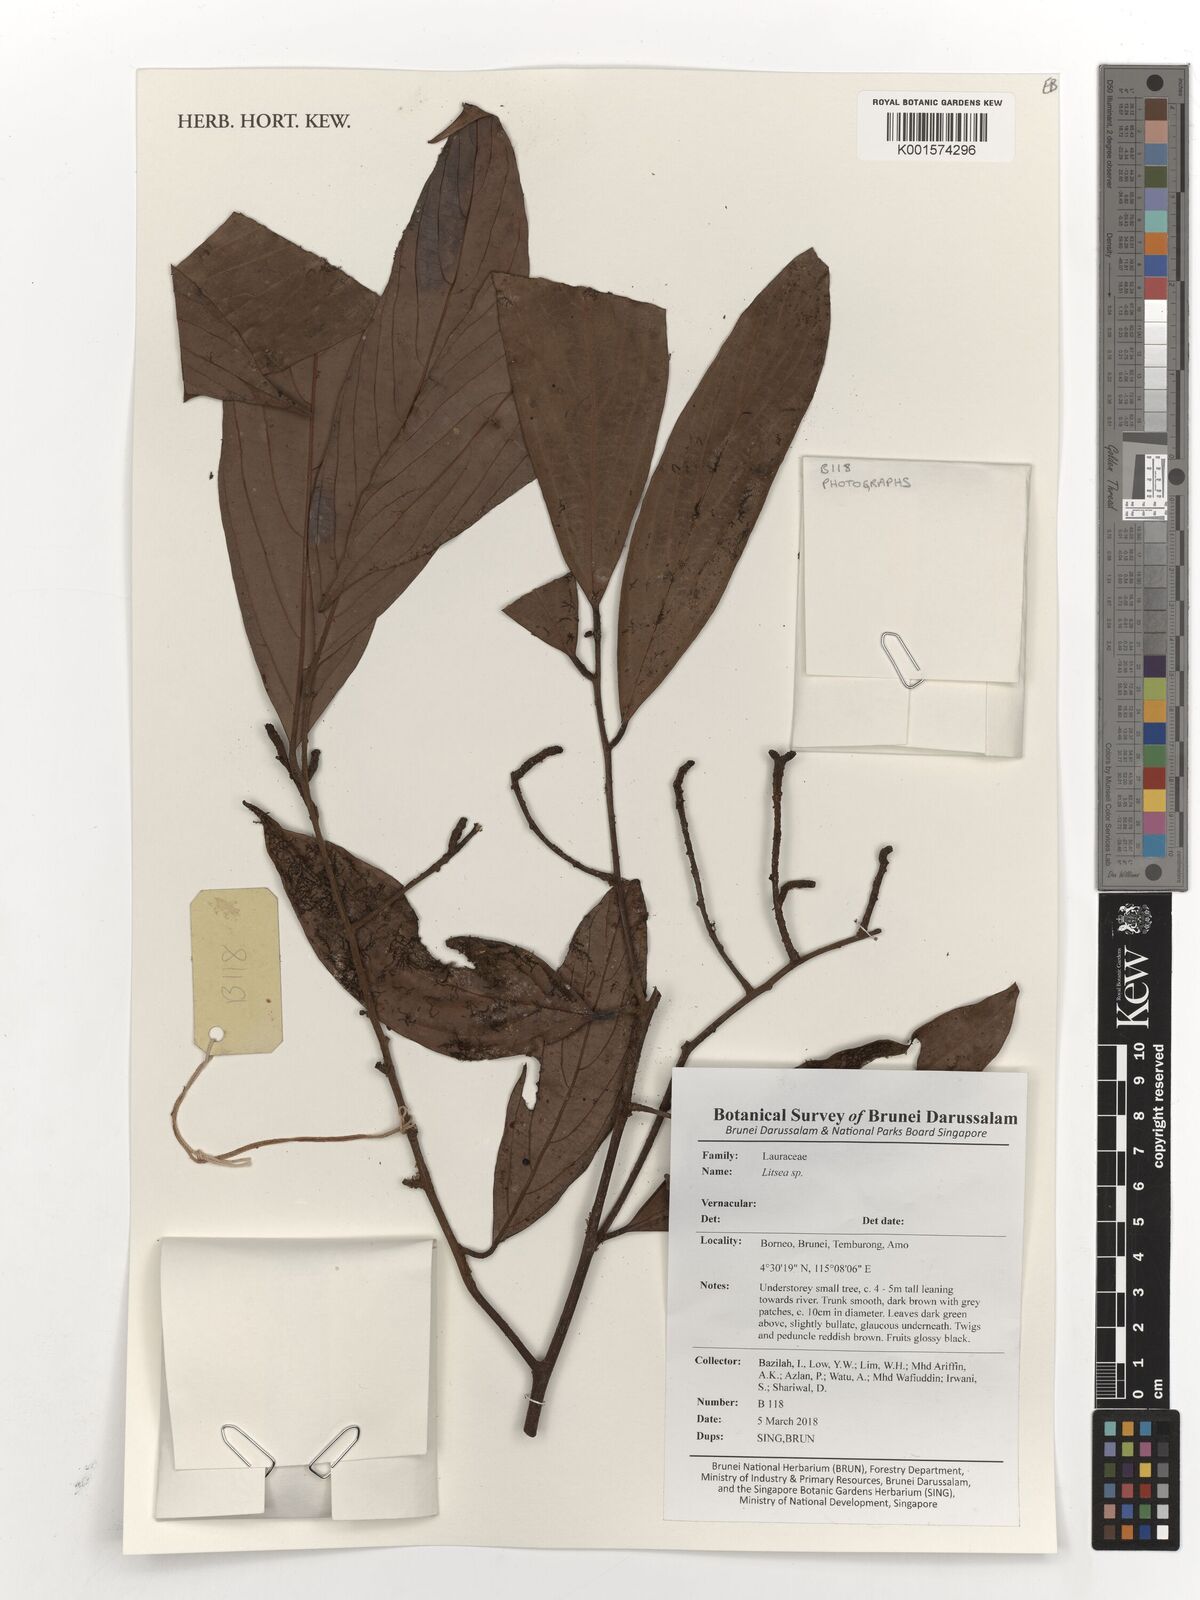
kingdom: Plantae
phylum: Tracheophyta
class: Magnoliopsida
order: Laurales
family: Lauraceae
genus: Litsea
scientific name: Litsea
